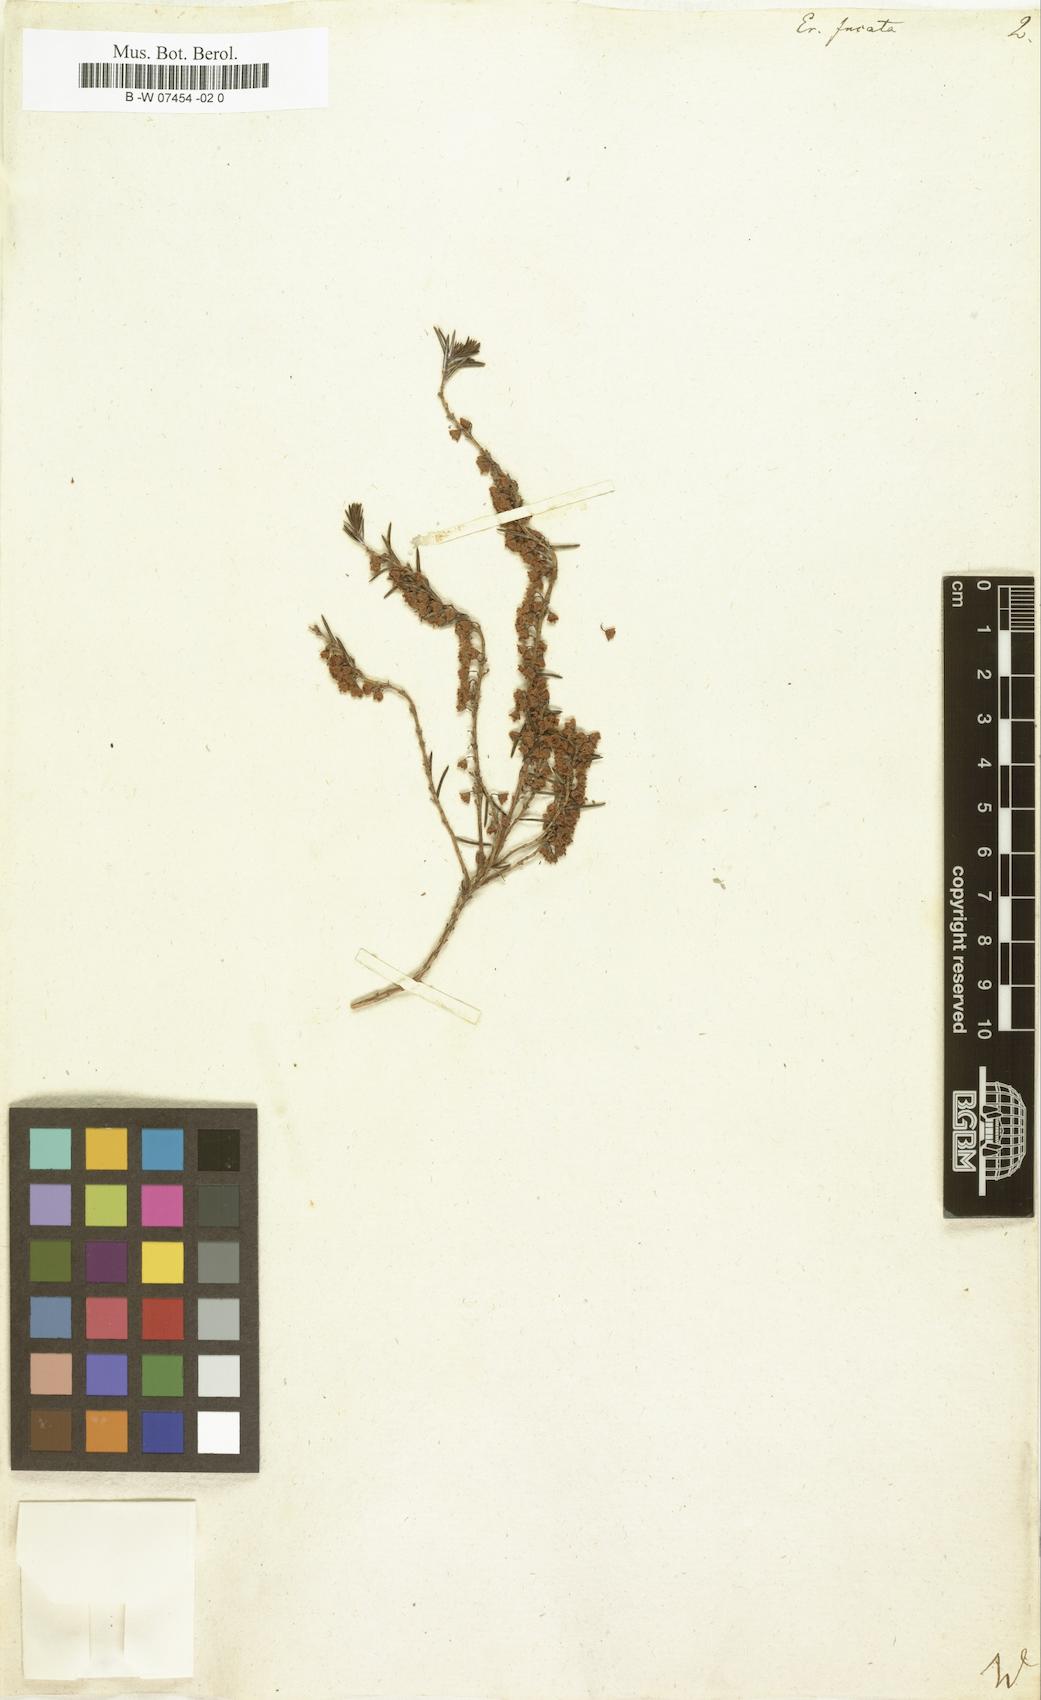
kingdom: Plantae
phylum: Tracheophyta
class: Magnoliopsida
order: Ericales
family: Ericaceae
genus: Erica
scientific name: Erica rubiginosa
